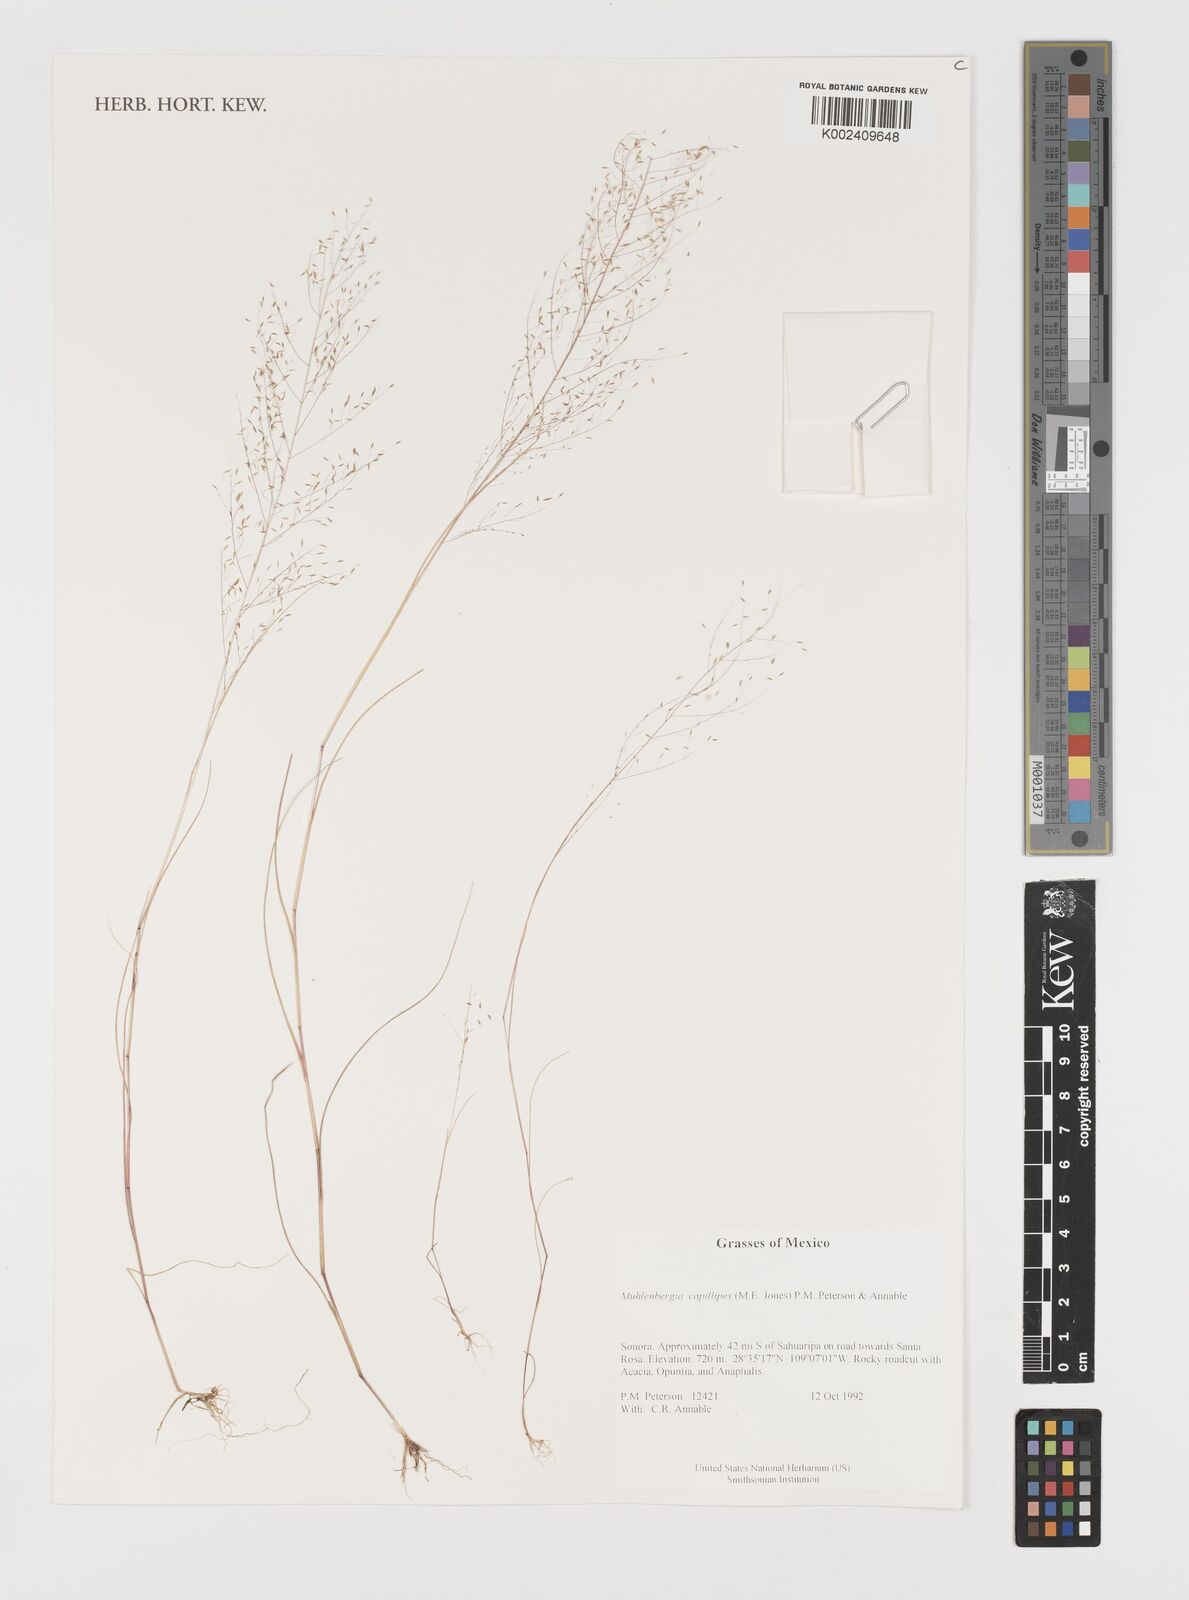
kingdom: Plantae
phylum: Tracheophyta
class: Liliopsida
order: Poales
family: Poaceae
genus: Muhlenbergia
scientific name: Muhlenbergia capillaris
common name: Purple grass
